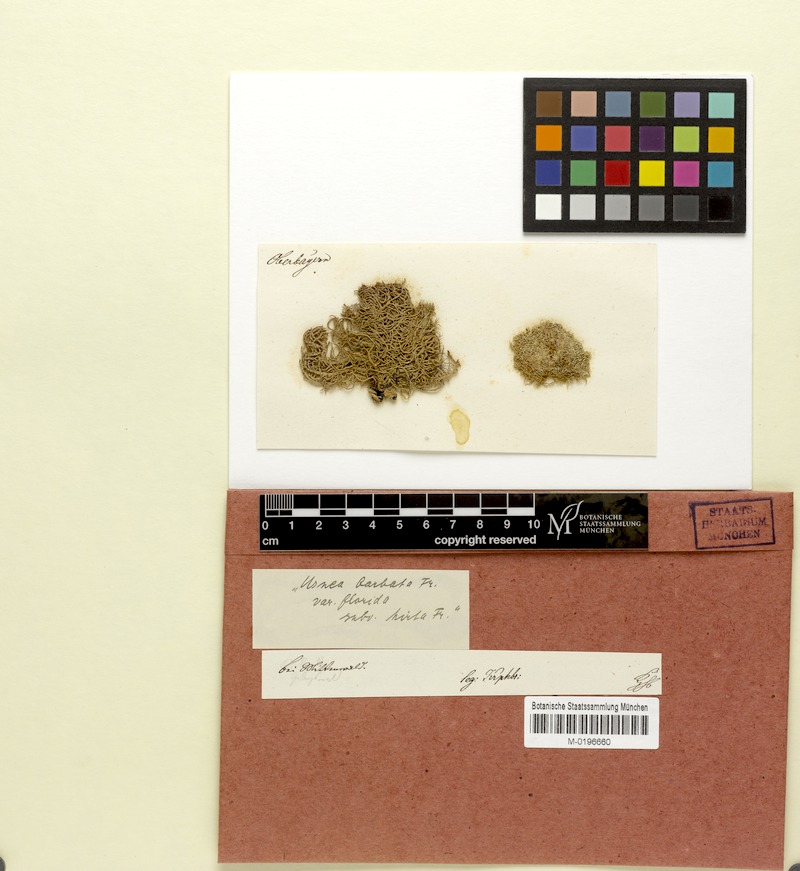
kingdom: Fungi
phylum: Ascomycota
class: Lecanoromycetes
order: Lecanorales
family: Parmeliaceae
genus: Usnea
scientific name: Usnea hirta
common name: Bristly beard lichen
